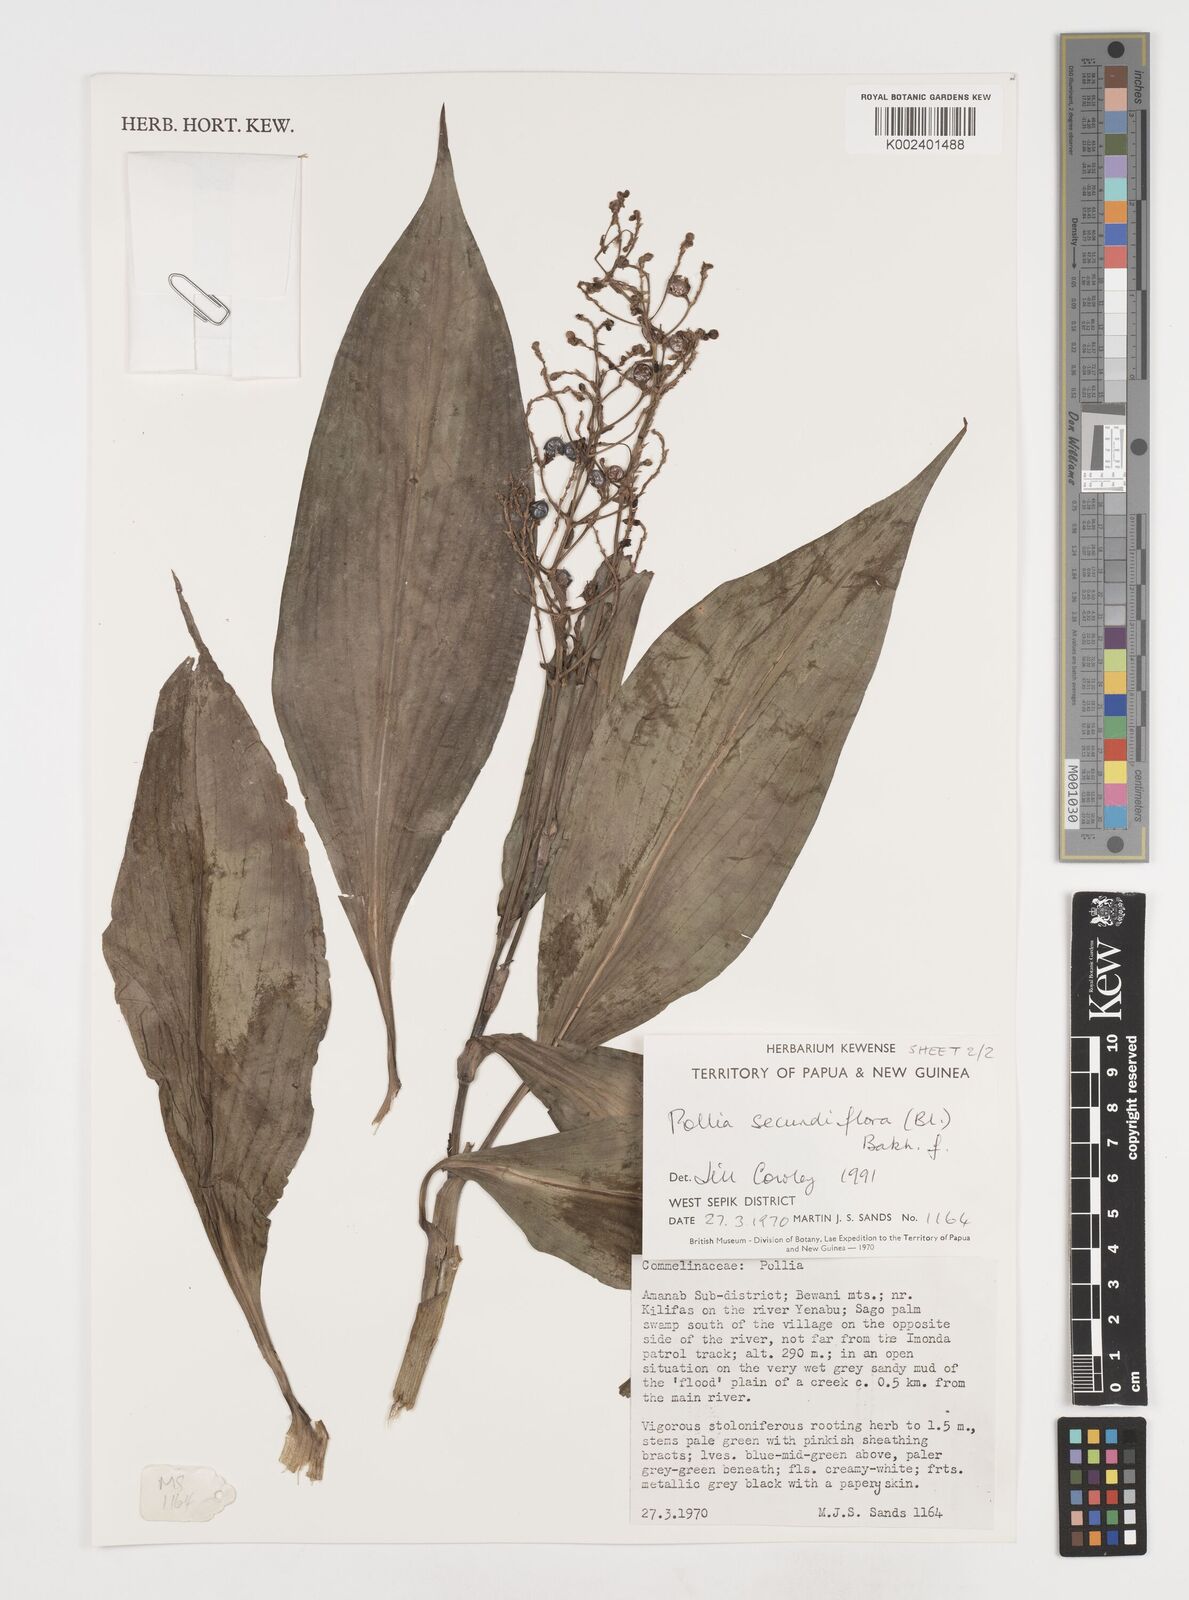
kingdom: Plantae
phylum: Tracheophyta
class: Liliopsida
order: Commelinales
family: Commelinaceae
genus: Pollia
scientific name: Pollia secundiflora
